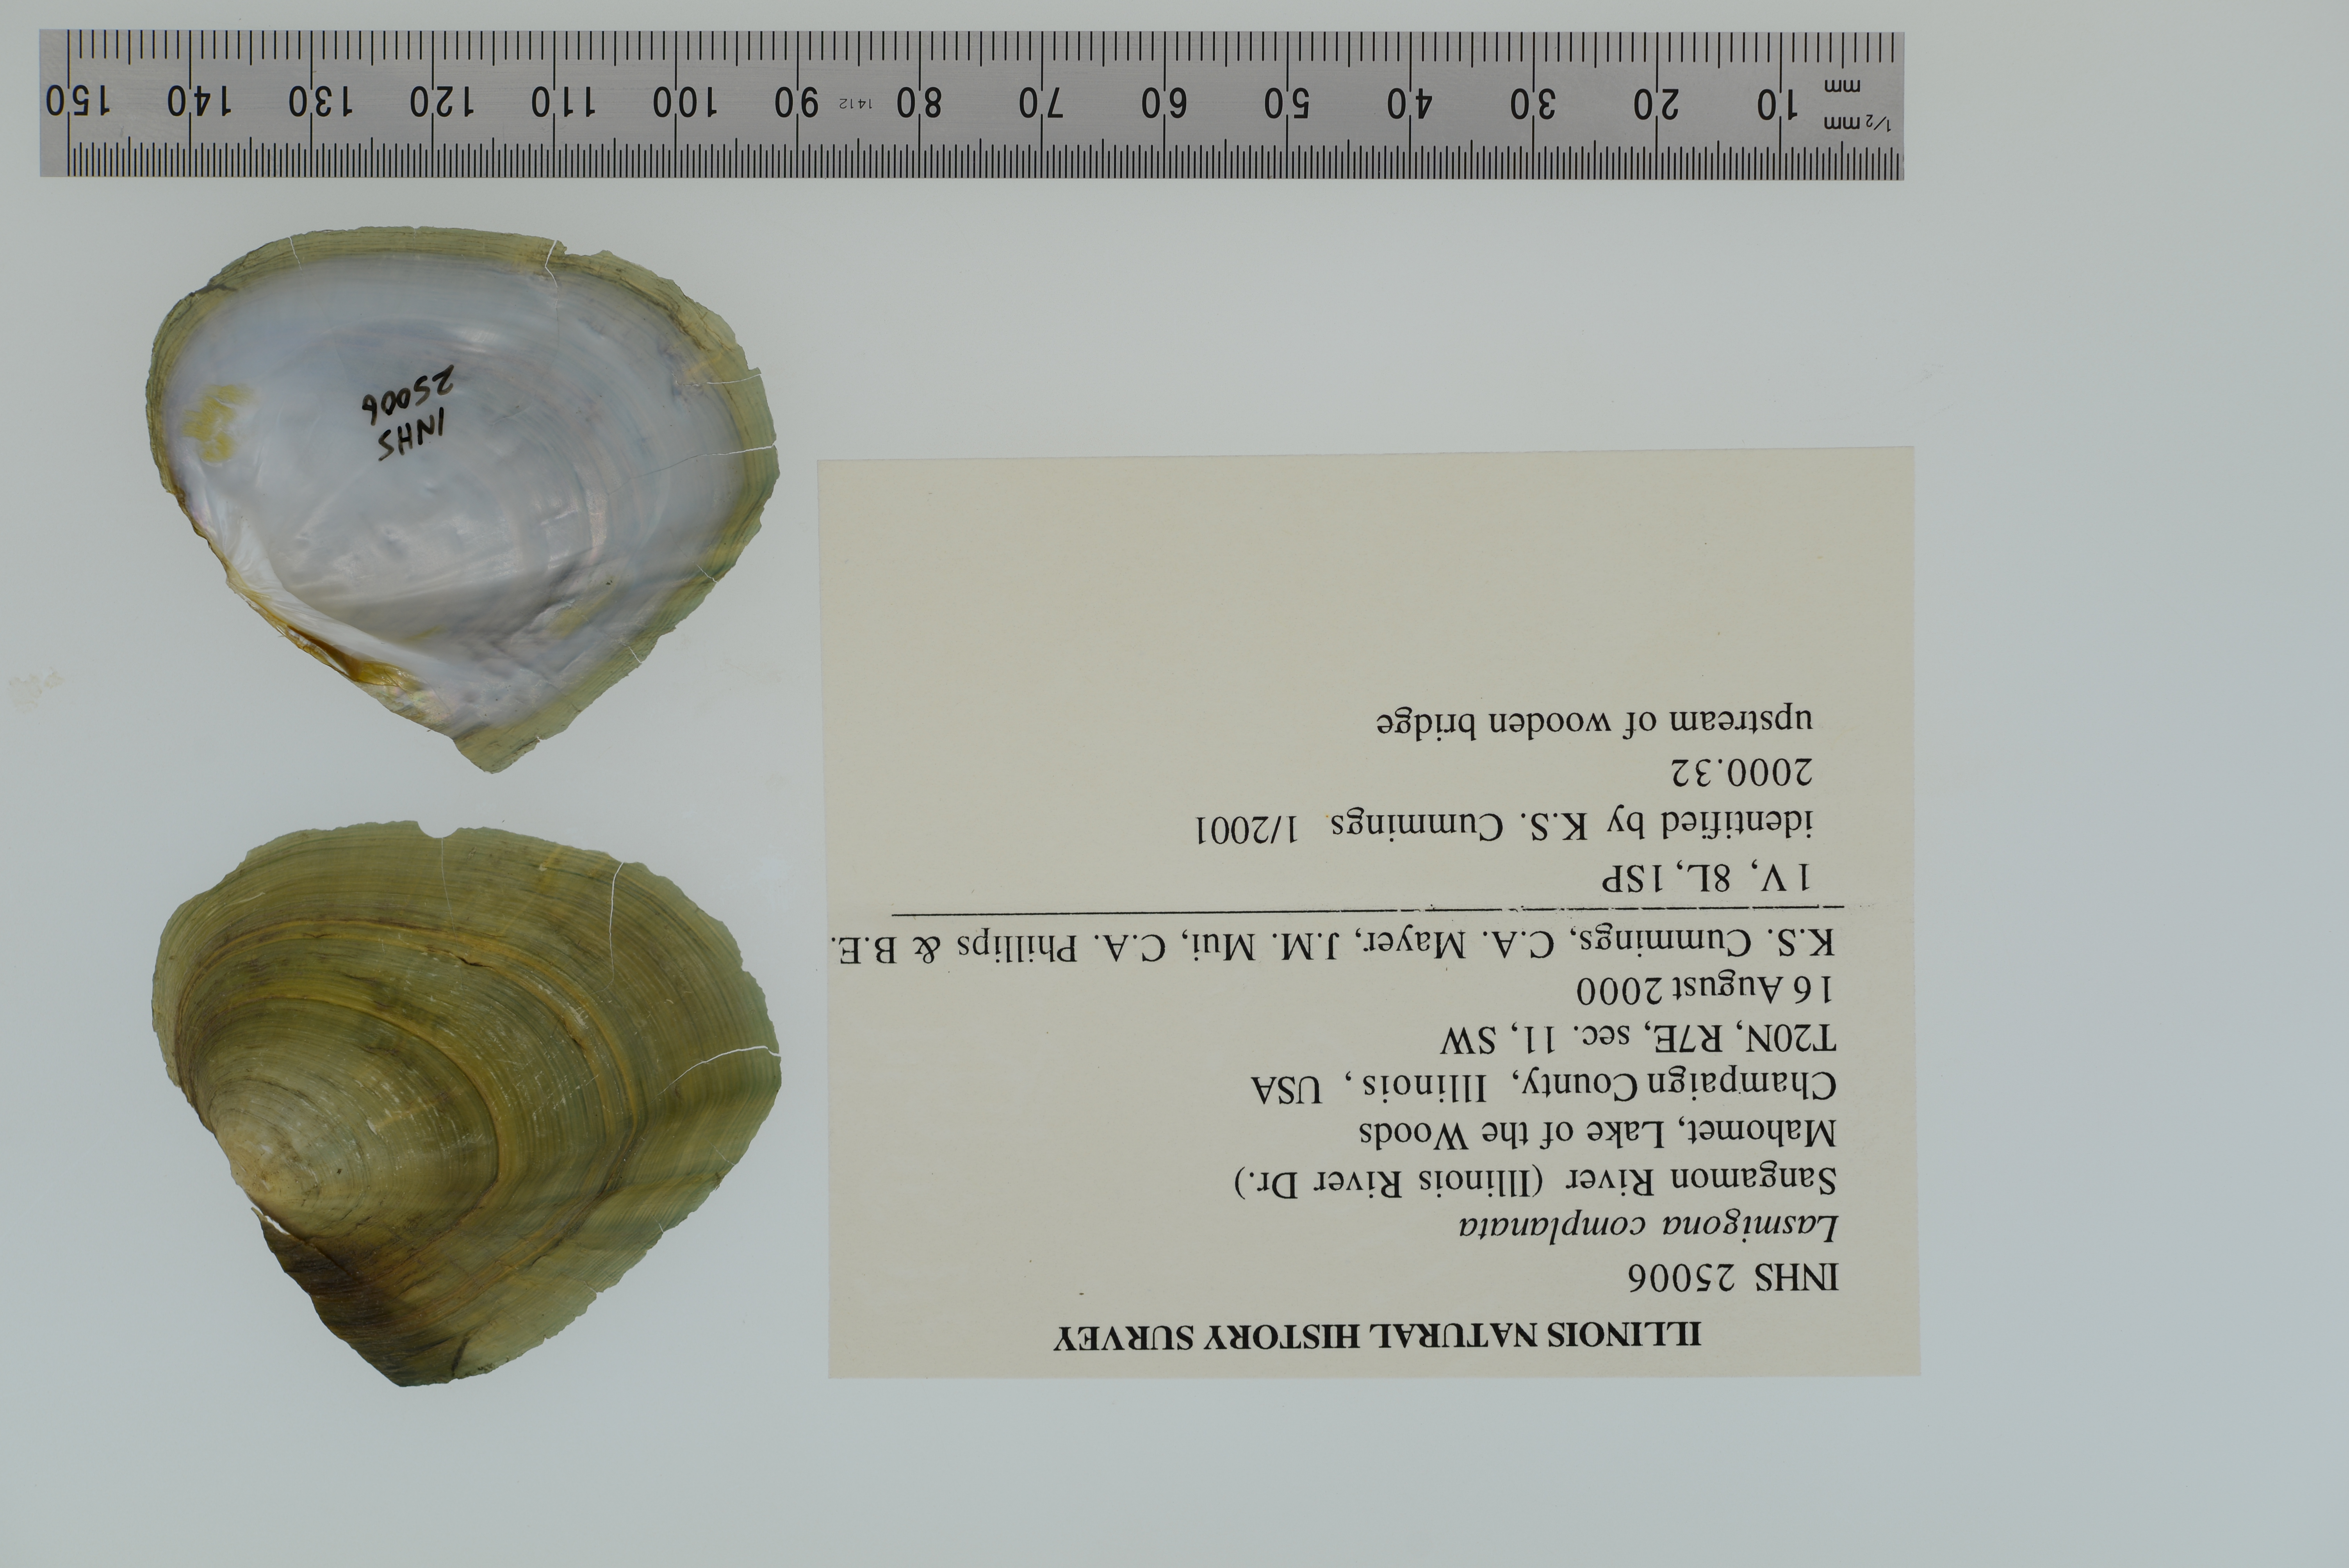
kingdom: Animalia
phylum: Mollusca
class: Bivalvia
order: Unionida
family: Unionidae
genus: Lasmigona
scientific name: Lasmigona complanata
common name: White heelsplitter
